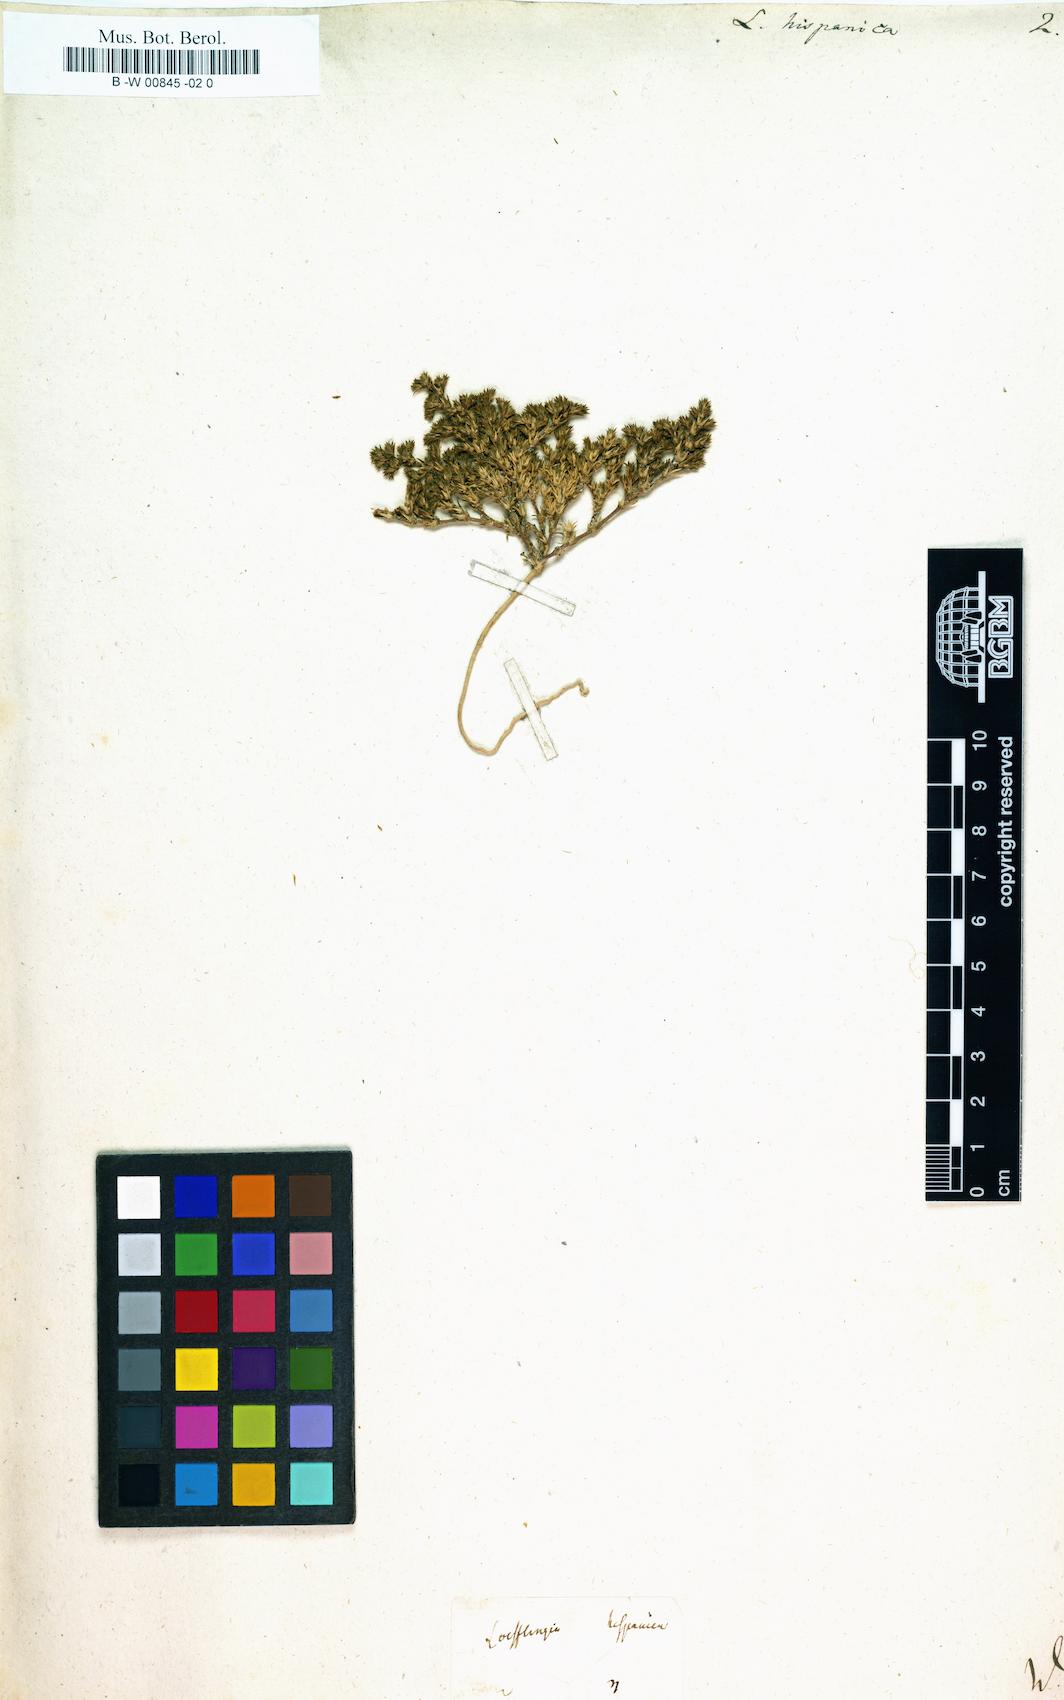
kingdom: Plantae
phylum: Tracheophyta
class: Magnoliopsida
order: Caryophyllales
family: Caryophyllaceae
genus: Loeflingia
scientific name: Loeflingia hispanica
